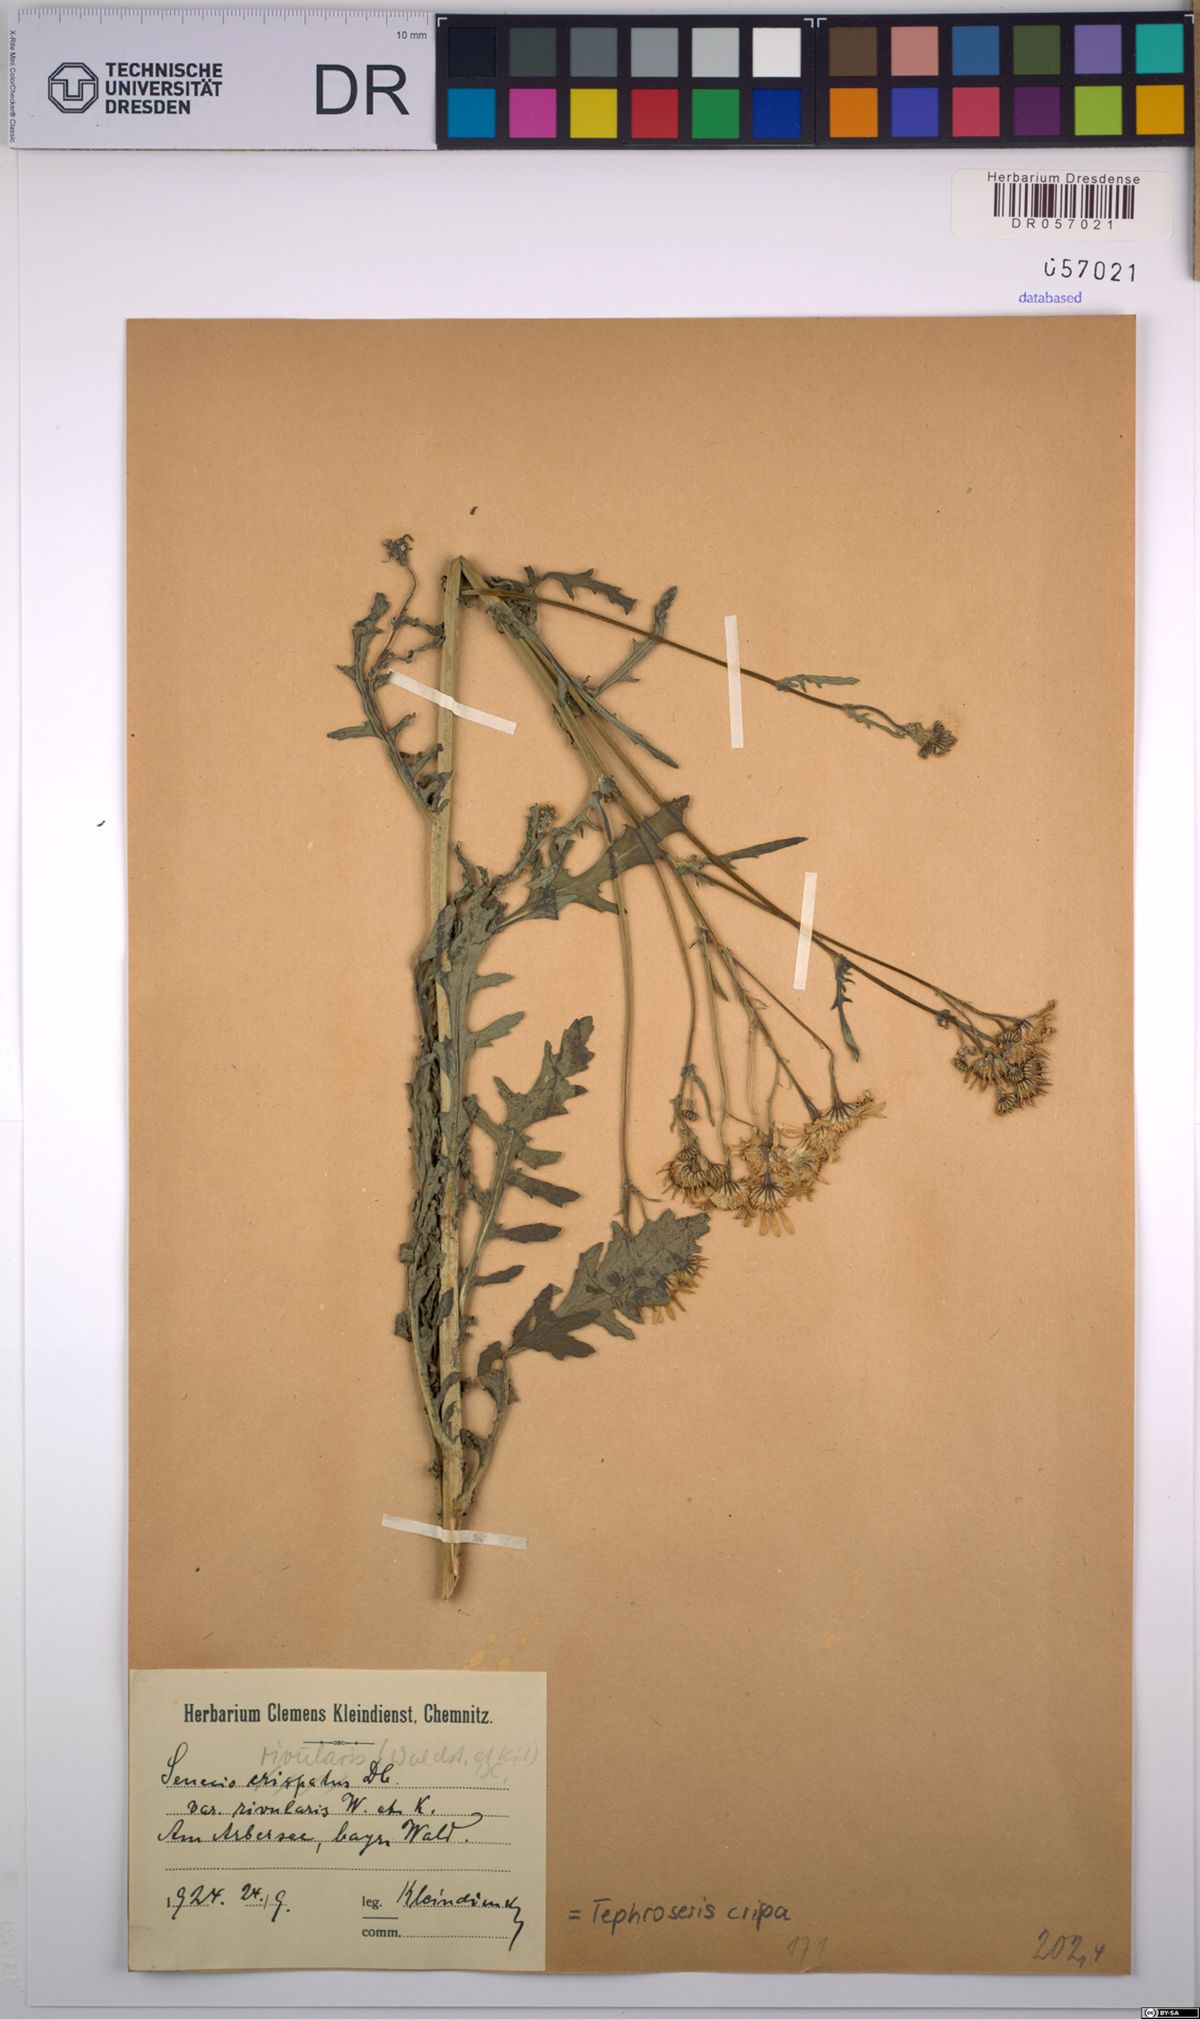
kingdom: Plantae
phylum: Tracheophyta
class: Magnoliopsida
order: Asterales
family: Asteraceae
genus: Tephroseris
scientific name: Tephroseris crispa
